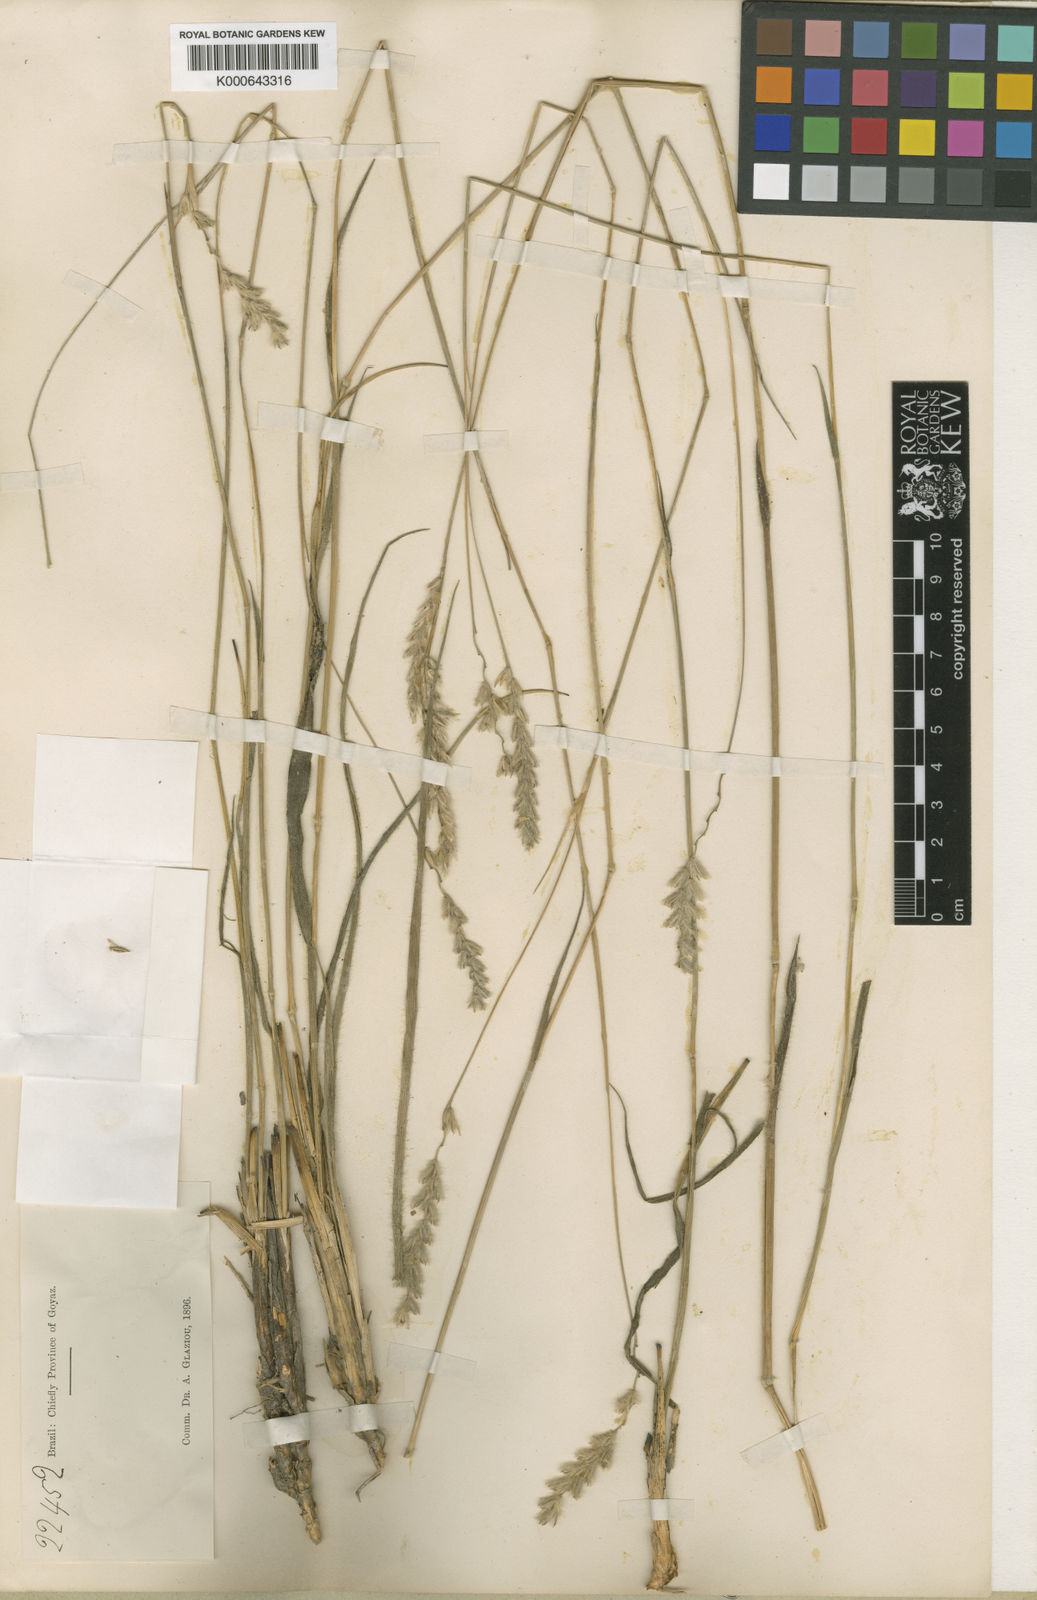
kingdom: Plantae
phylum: Tracheophyta
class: Liliopsida
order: Poales
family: Poaceae
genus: Mesosetum
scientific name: Mesosetum agropyroides
